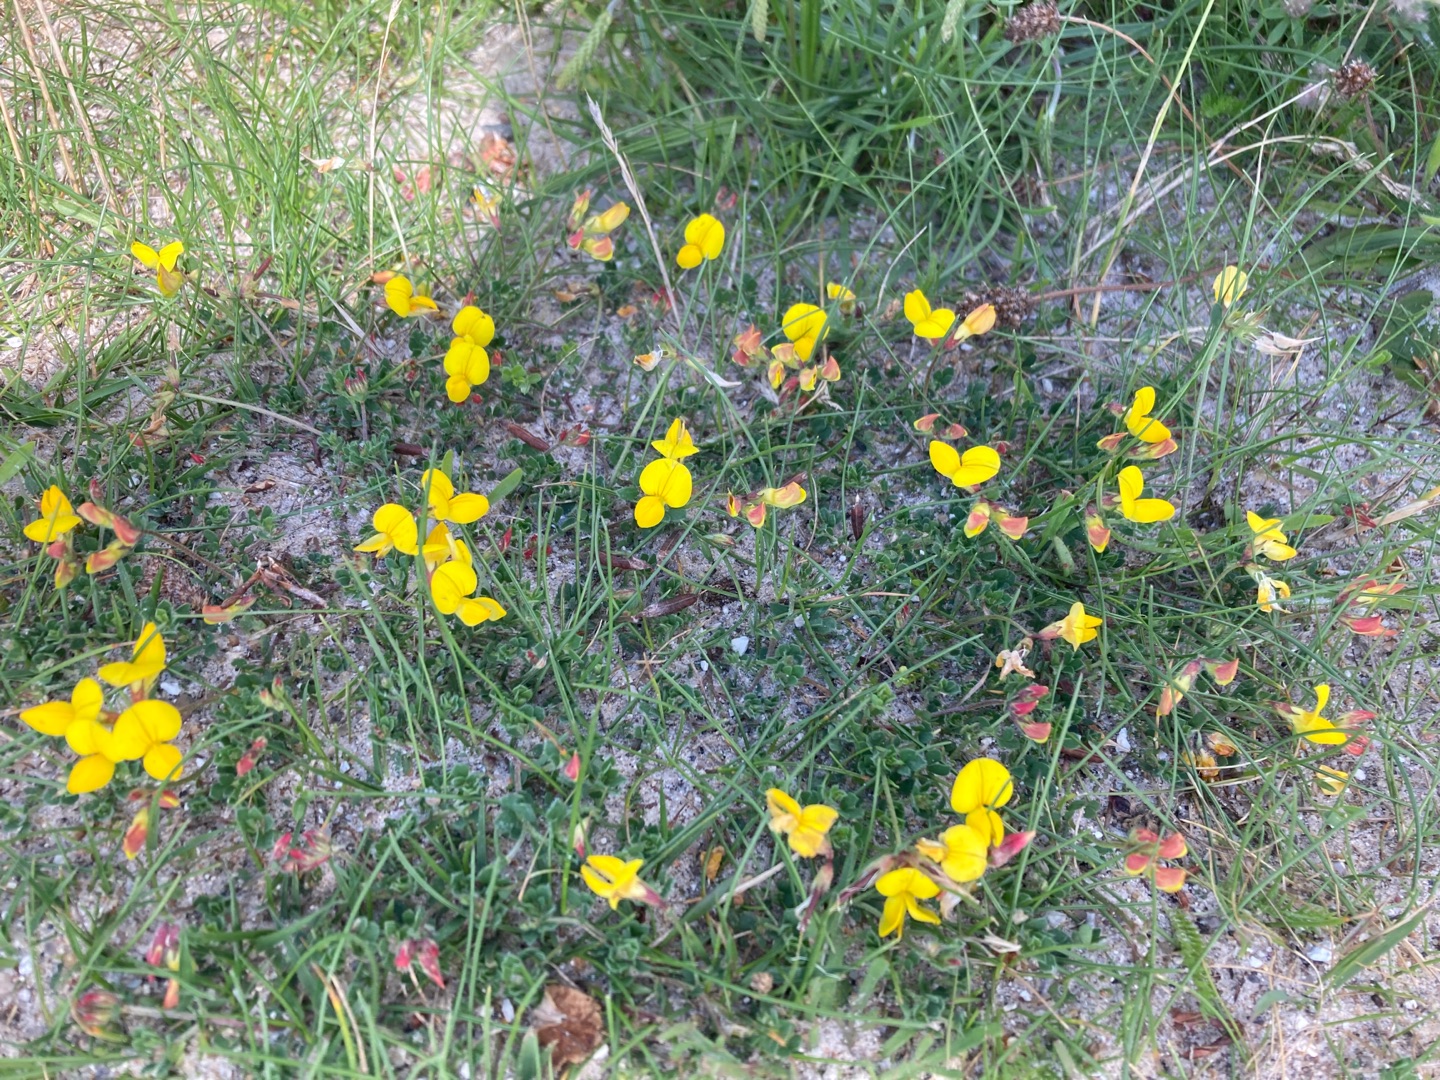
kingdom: Plantae
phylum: Tracheophyta
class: Magnoliopsida
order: Fabales
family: Fabaceae
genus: Lotus
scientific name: Lotus corniculatus
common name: Almindelig kællingetand
